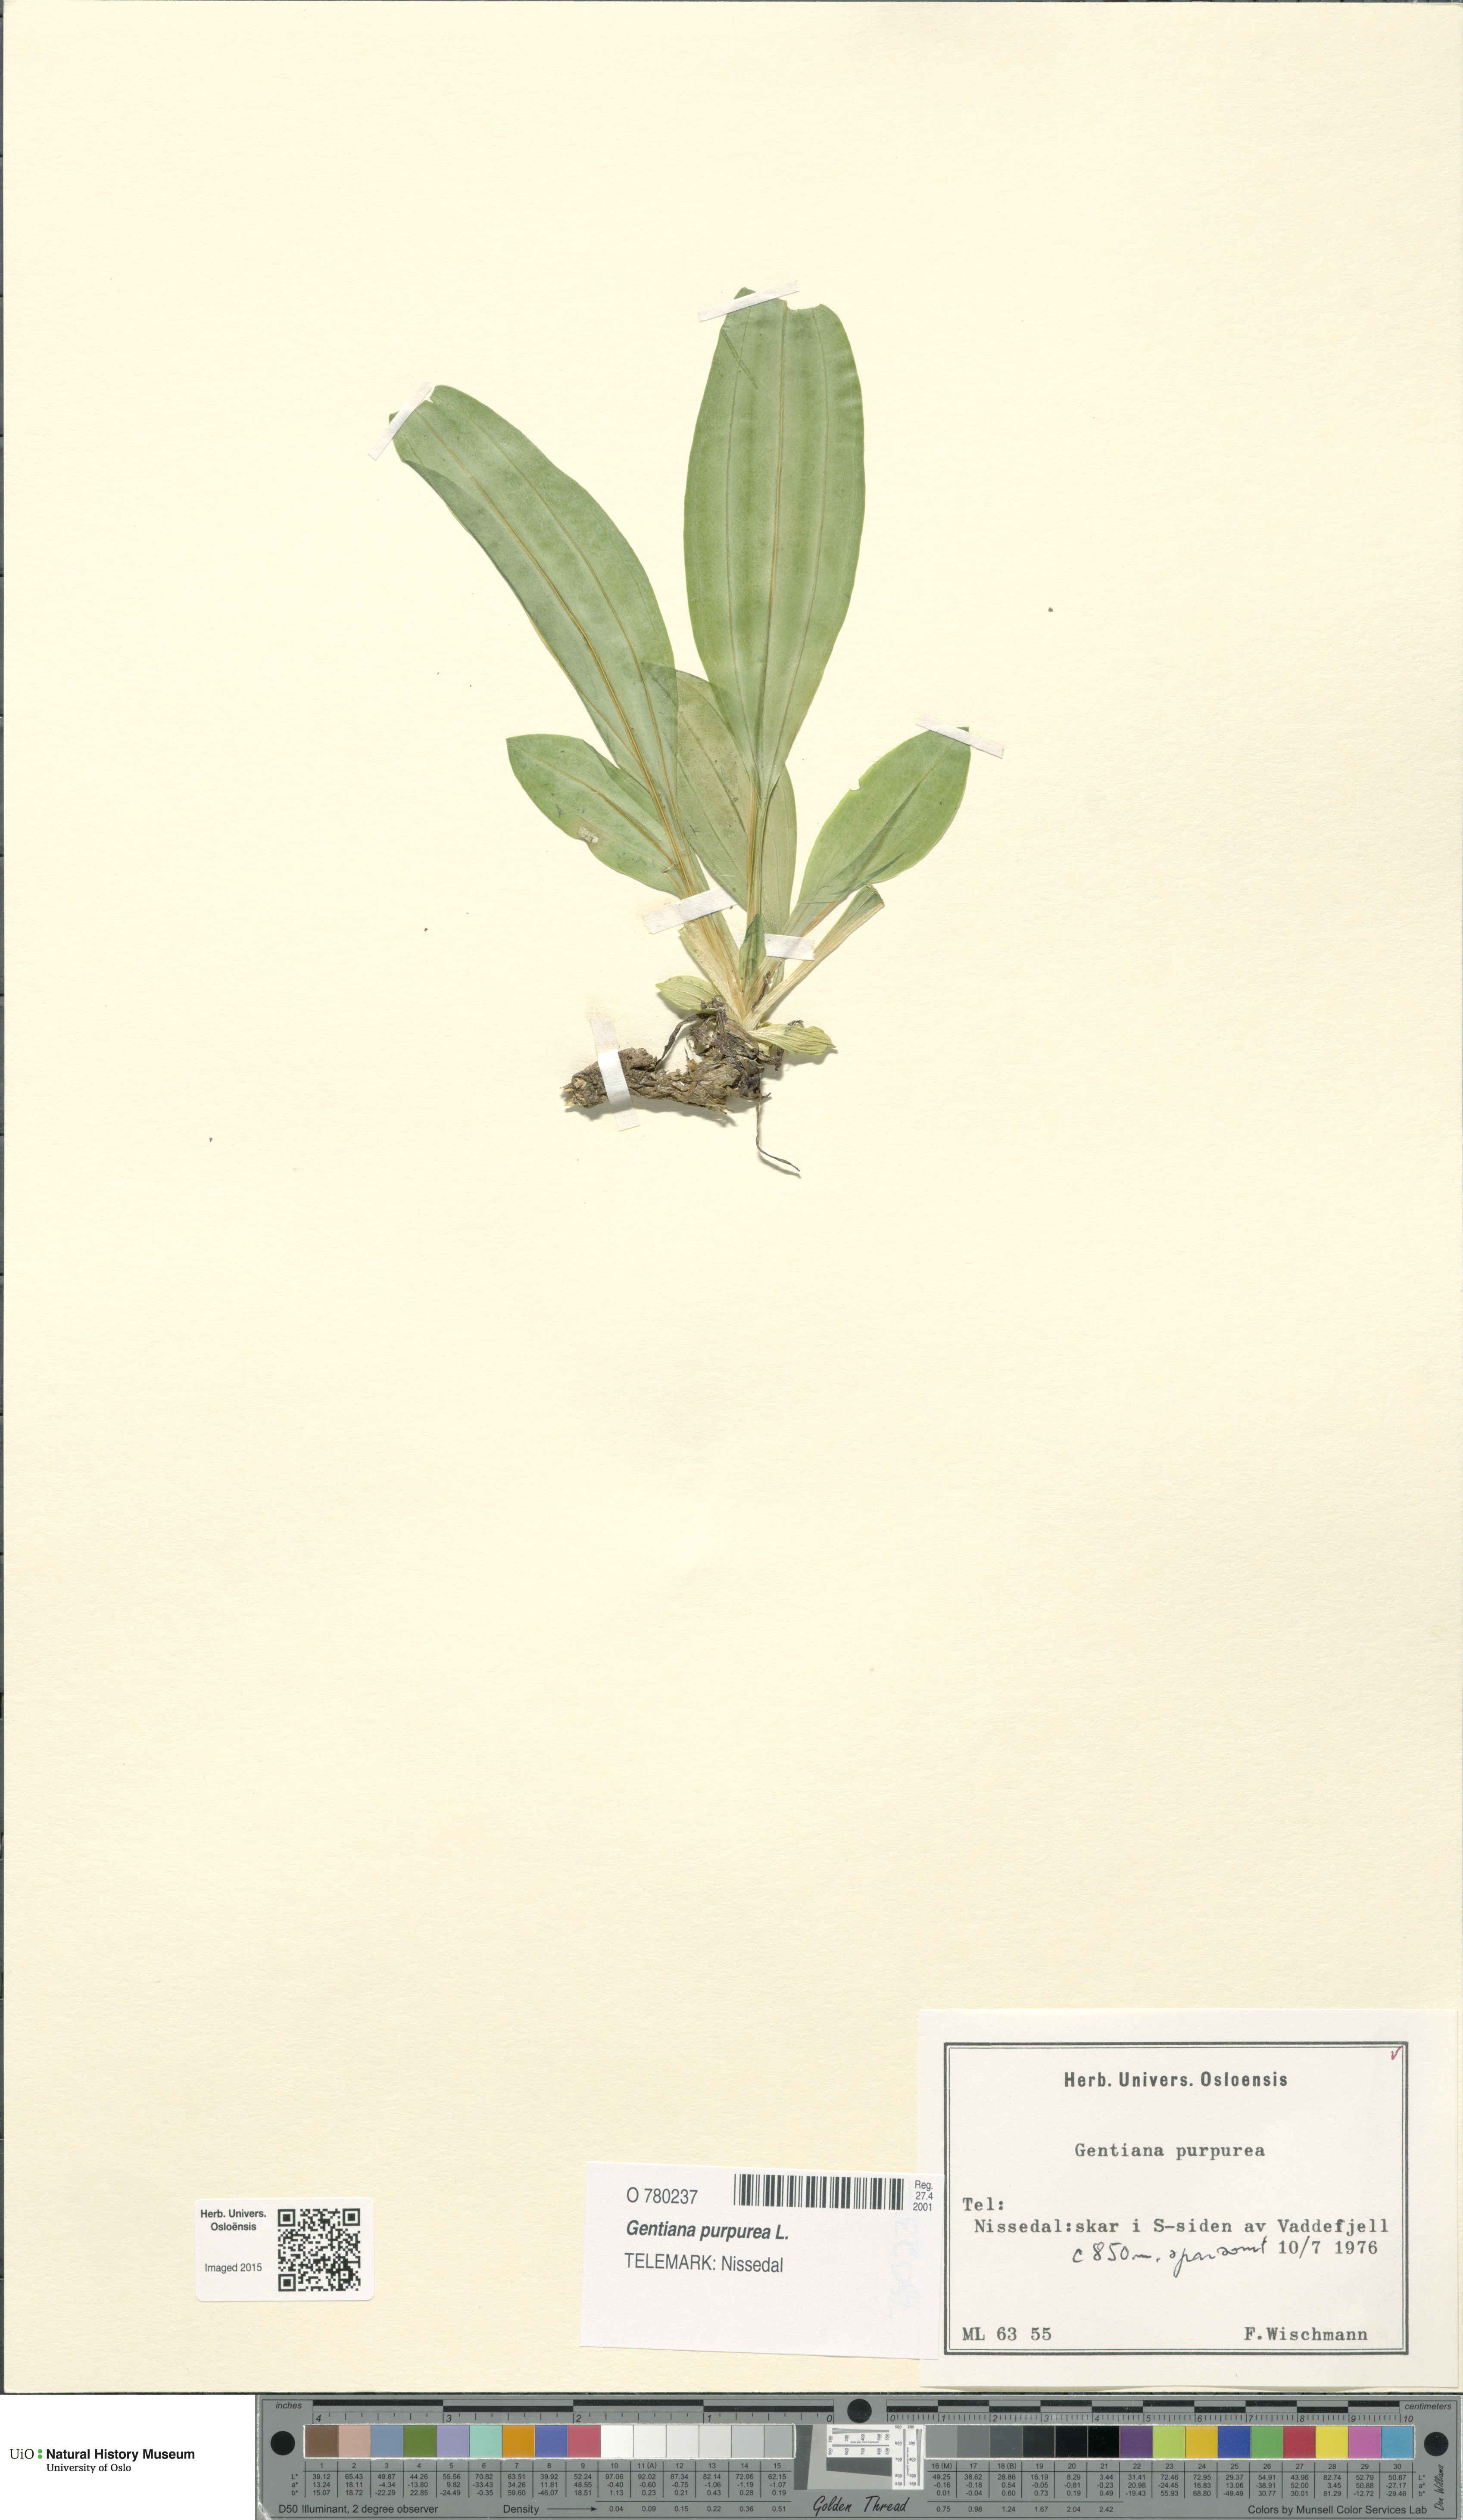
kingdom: Plantae
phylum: Tracheophyta
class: Magnoliopsida
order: Gentianales
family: Gentianaceae
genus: Gentiana
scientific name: Gentiana purpurea
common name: Purple gentian
